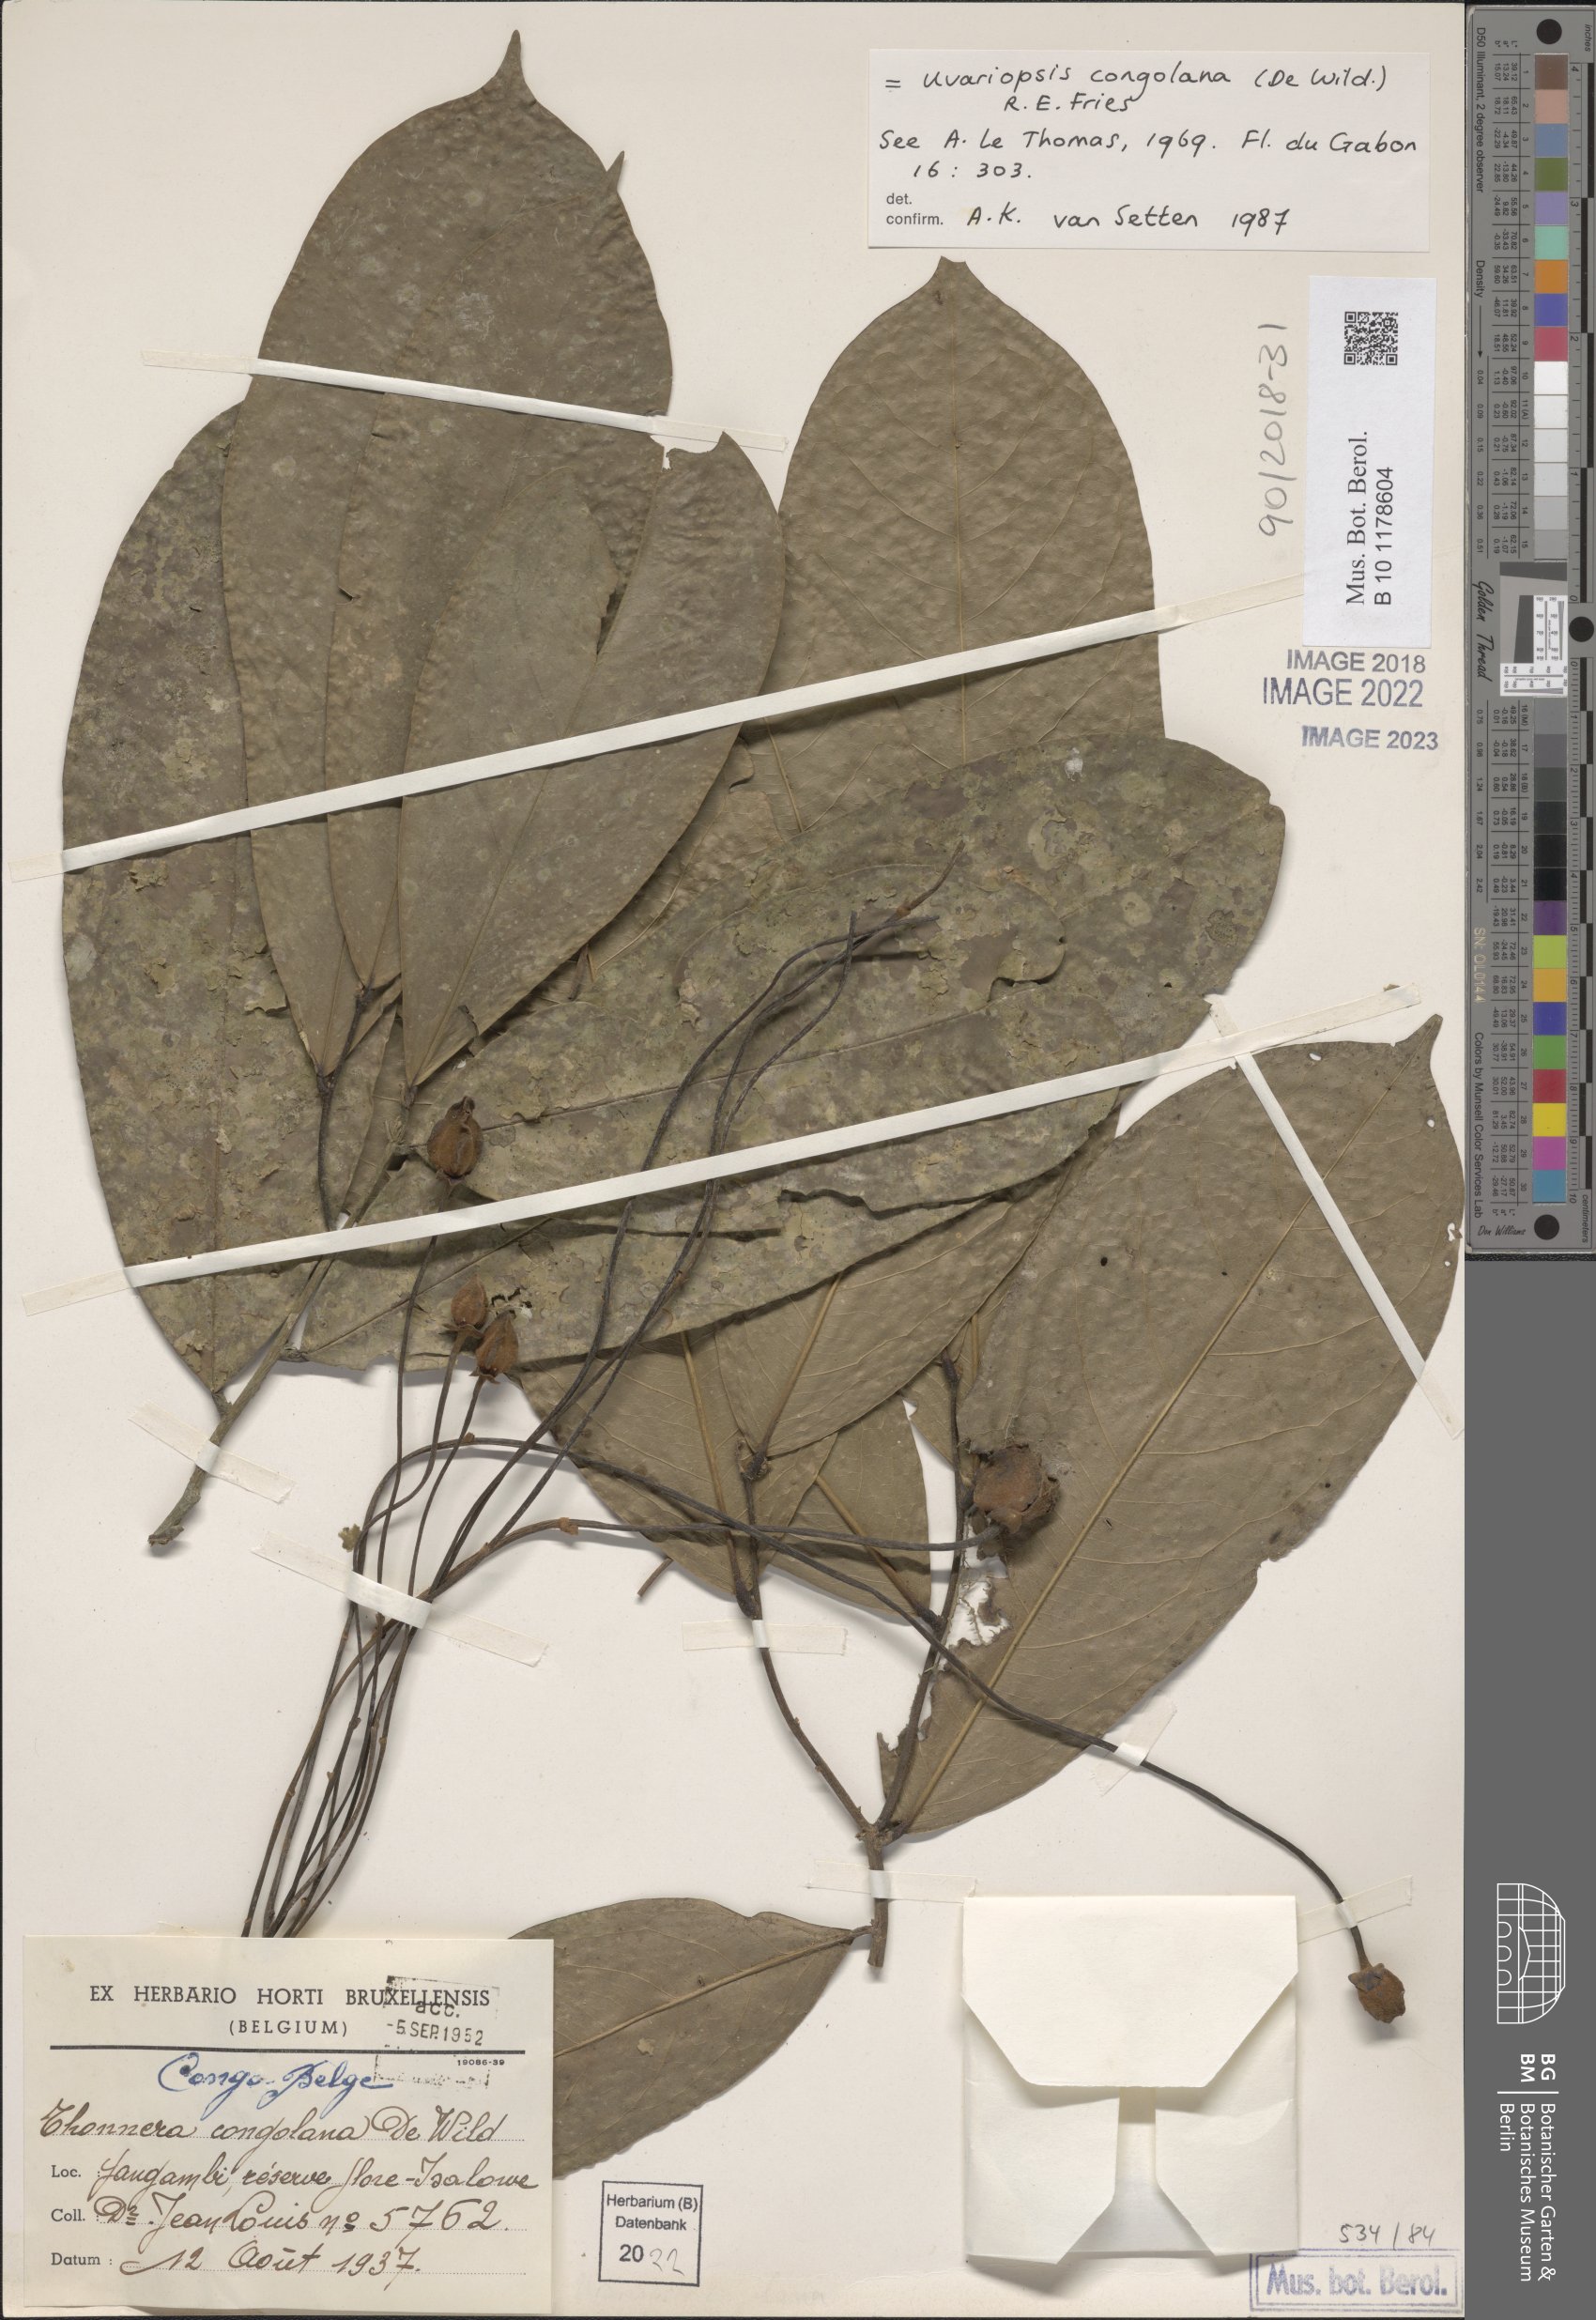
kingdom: Plantae
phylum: Tracheophyta
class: Magnoliopsida
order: Magnoliales
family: Annonaceae
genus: Uvariopsis
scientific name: Uvariopsis congolana
